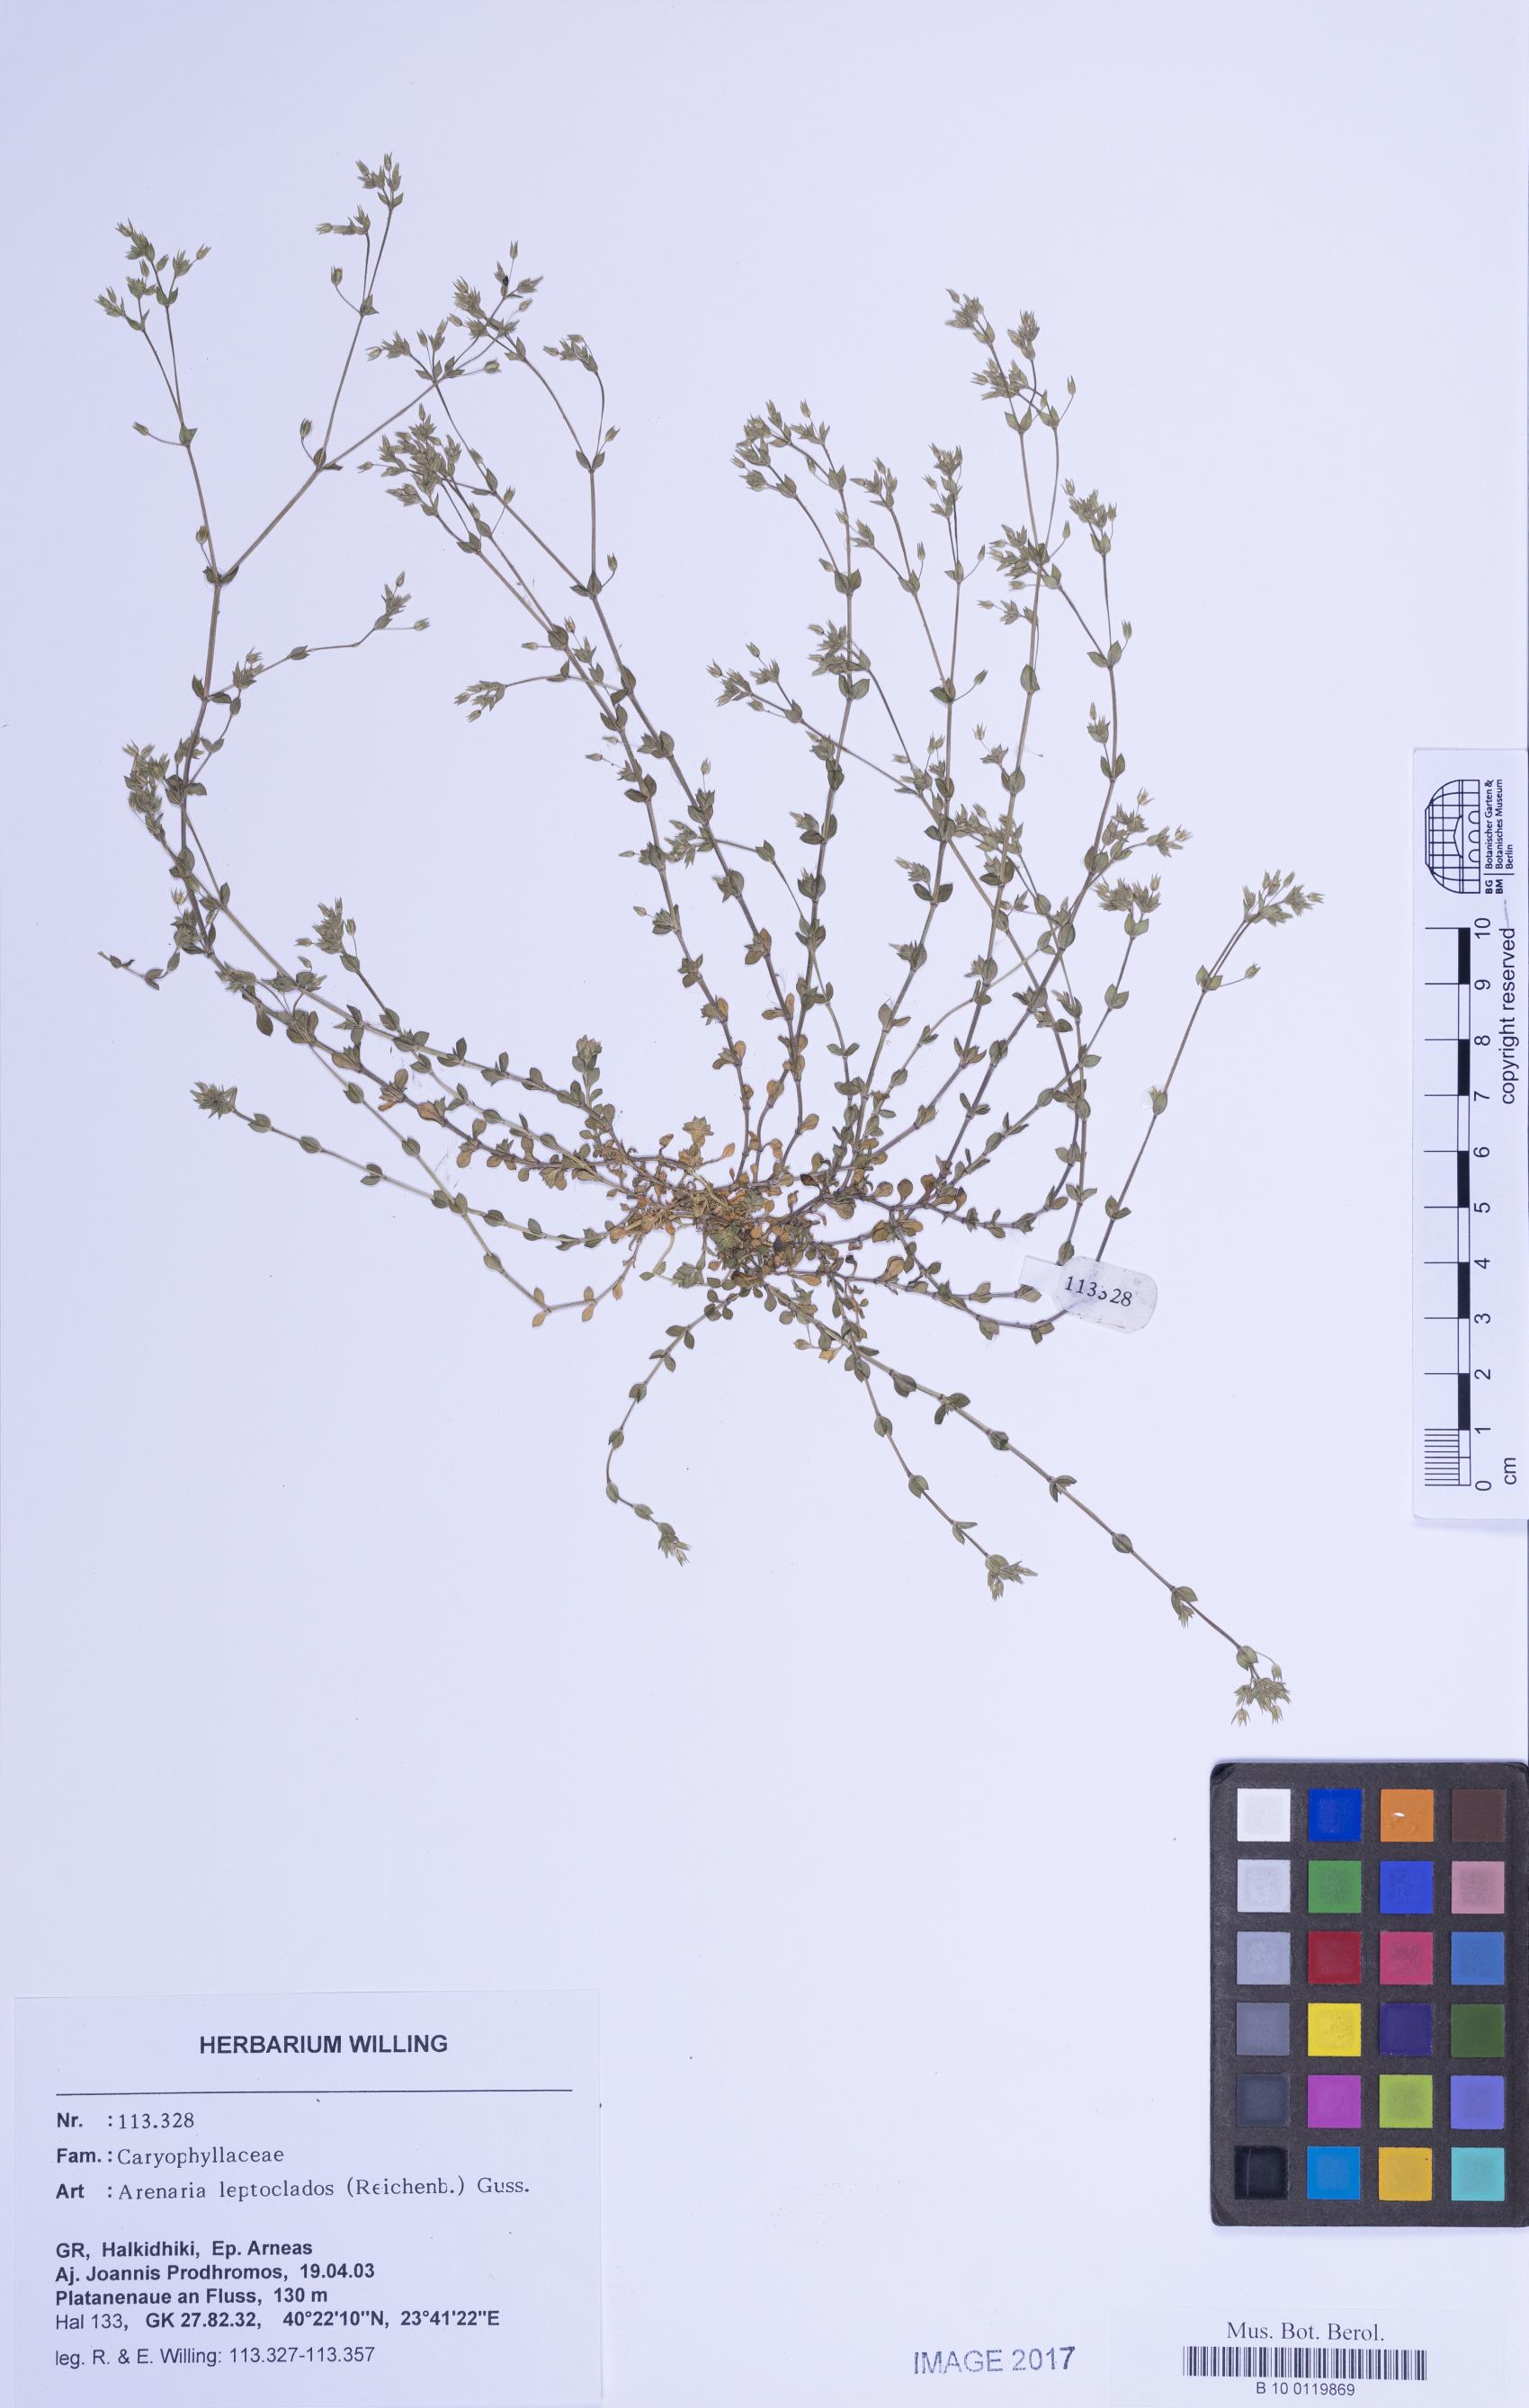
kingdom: Plantae
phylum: Tracheophyta
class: Magnoliopsida
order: Caryophyllales
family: Caryophyllaceae
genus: Arenaria
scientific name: Arenaria leptoclados
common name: Thyme-leaved sandwort
